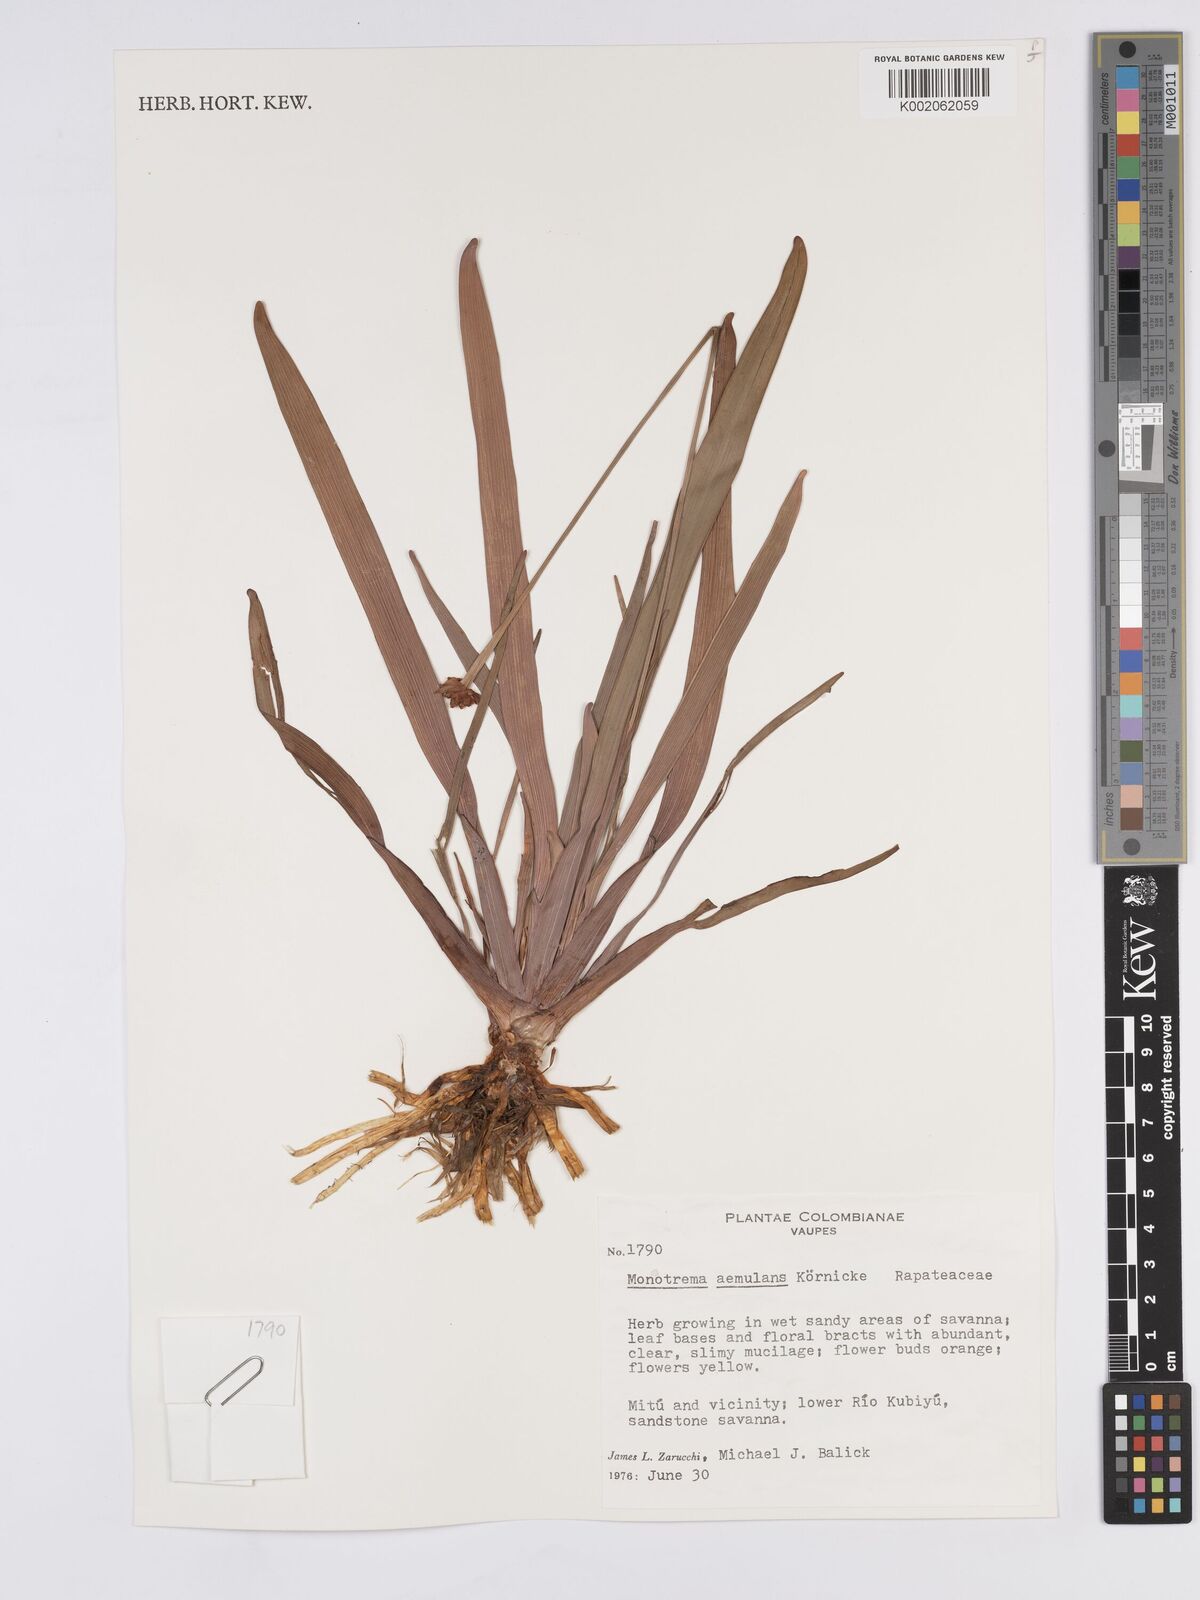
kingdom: Plantae
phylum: Tracheophyta
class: Liliopsida
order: Poales
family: Rapateaceae
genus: Monotrema
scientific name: Monotrema aemulans
